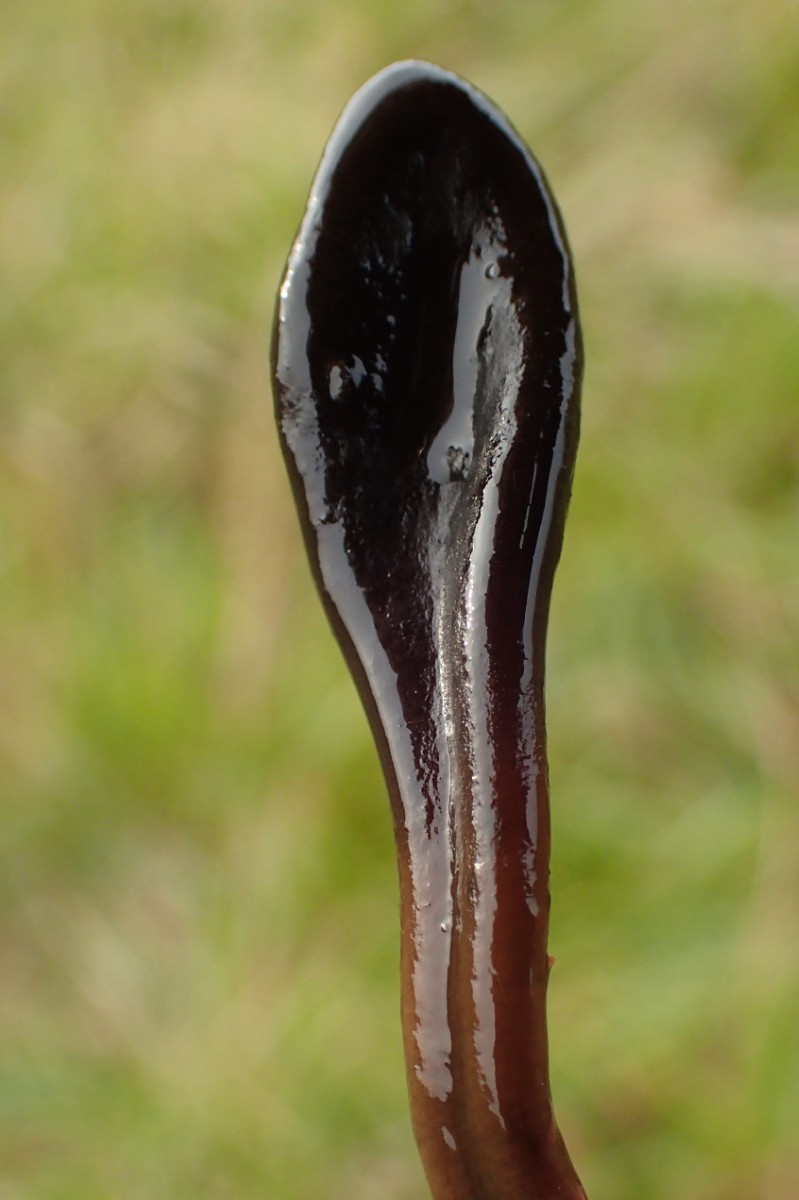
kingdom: Fungi
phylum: Ascomycota
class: Geoglossomycetes
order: Geoglossales
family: Geoglossaceae
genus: Glutinoglossum
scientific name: Glutinoglossum glutinosum
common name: slimet jordtunge
